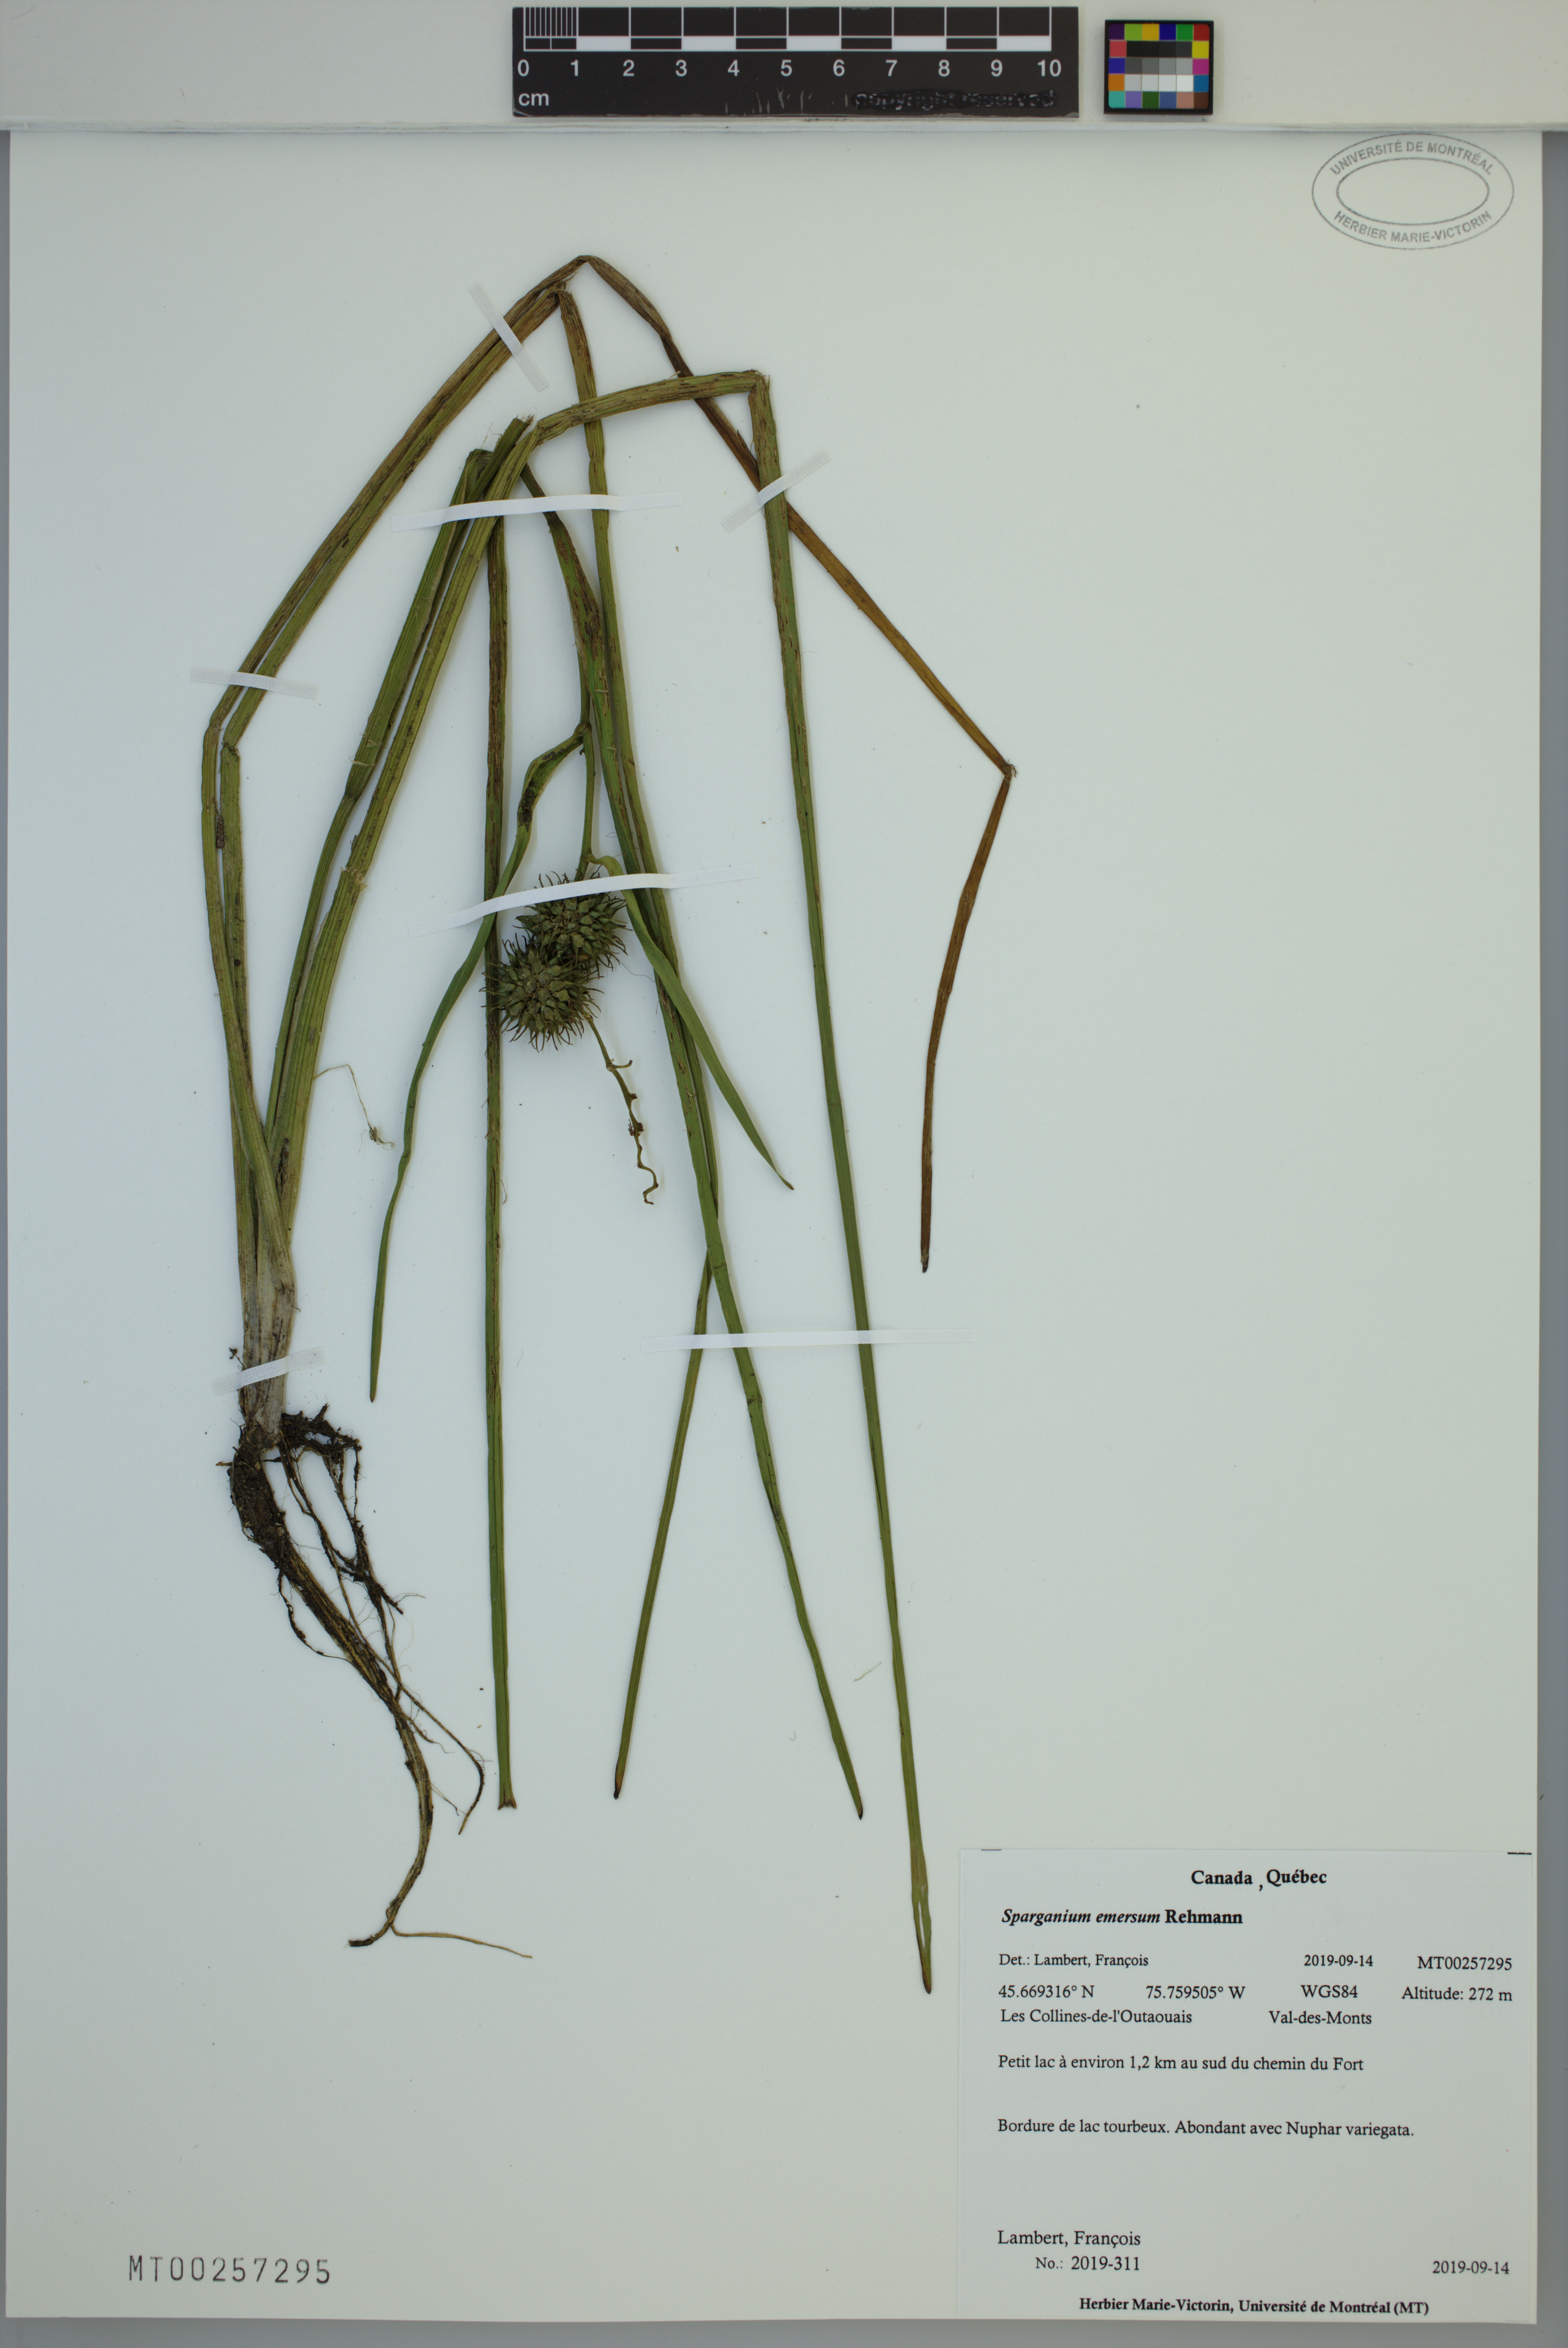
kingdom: Plantae
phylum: Tracheophyta
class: Liliopsida
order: Poales
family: Typhaceae
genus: Sparganium
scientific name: Sparganium emersum
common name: Unbranched bur-reed
